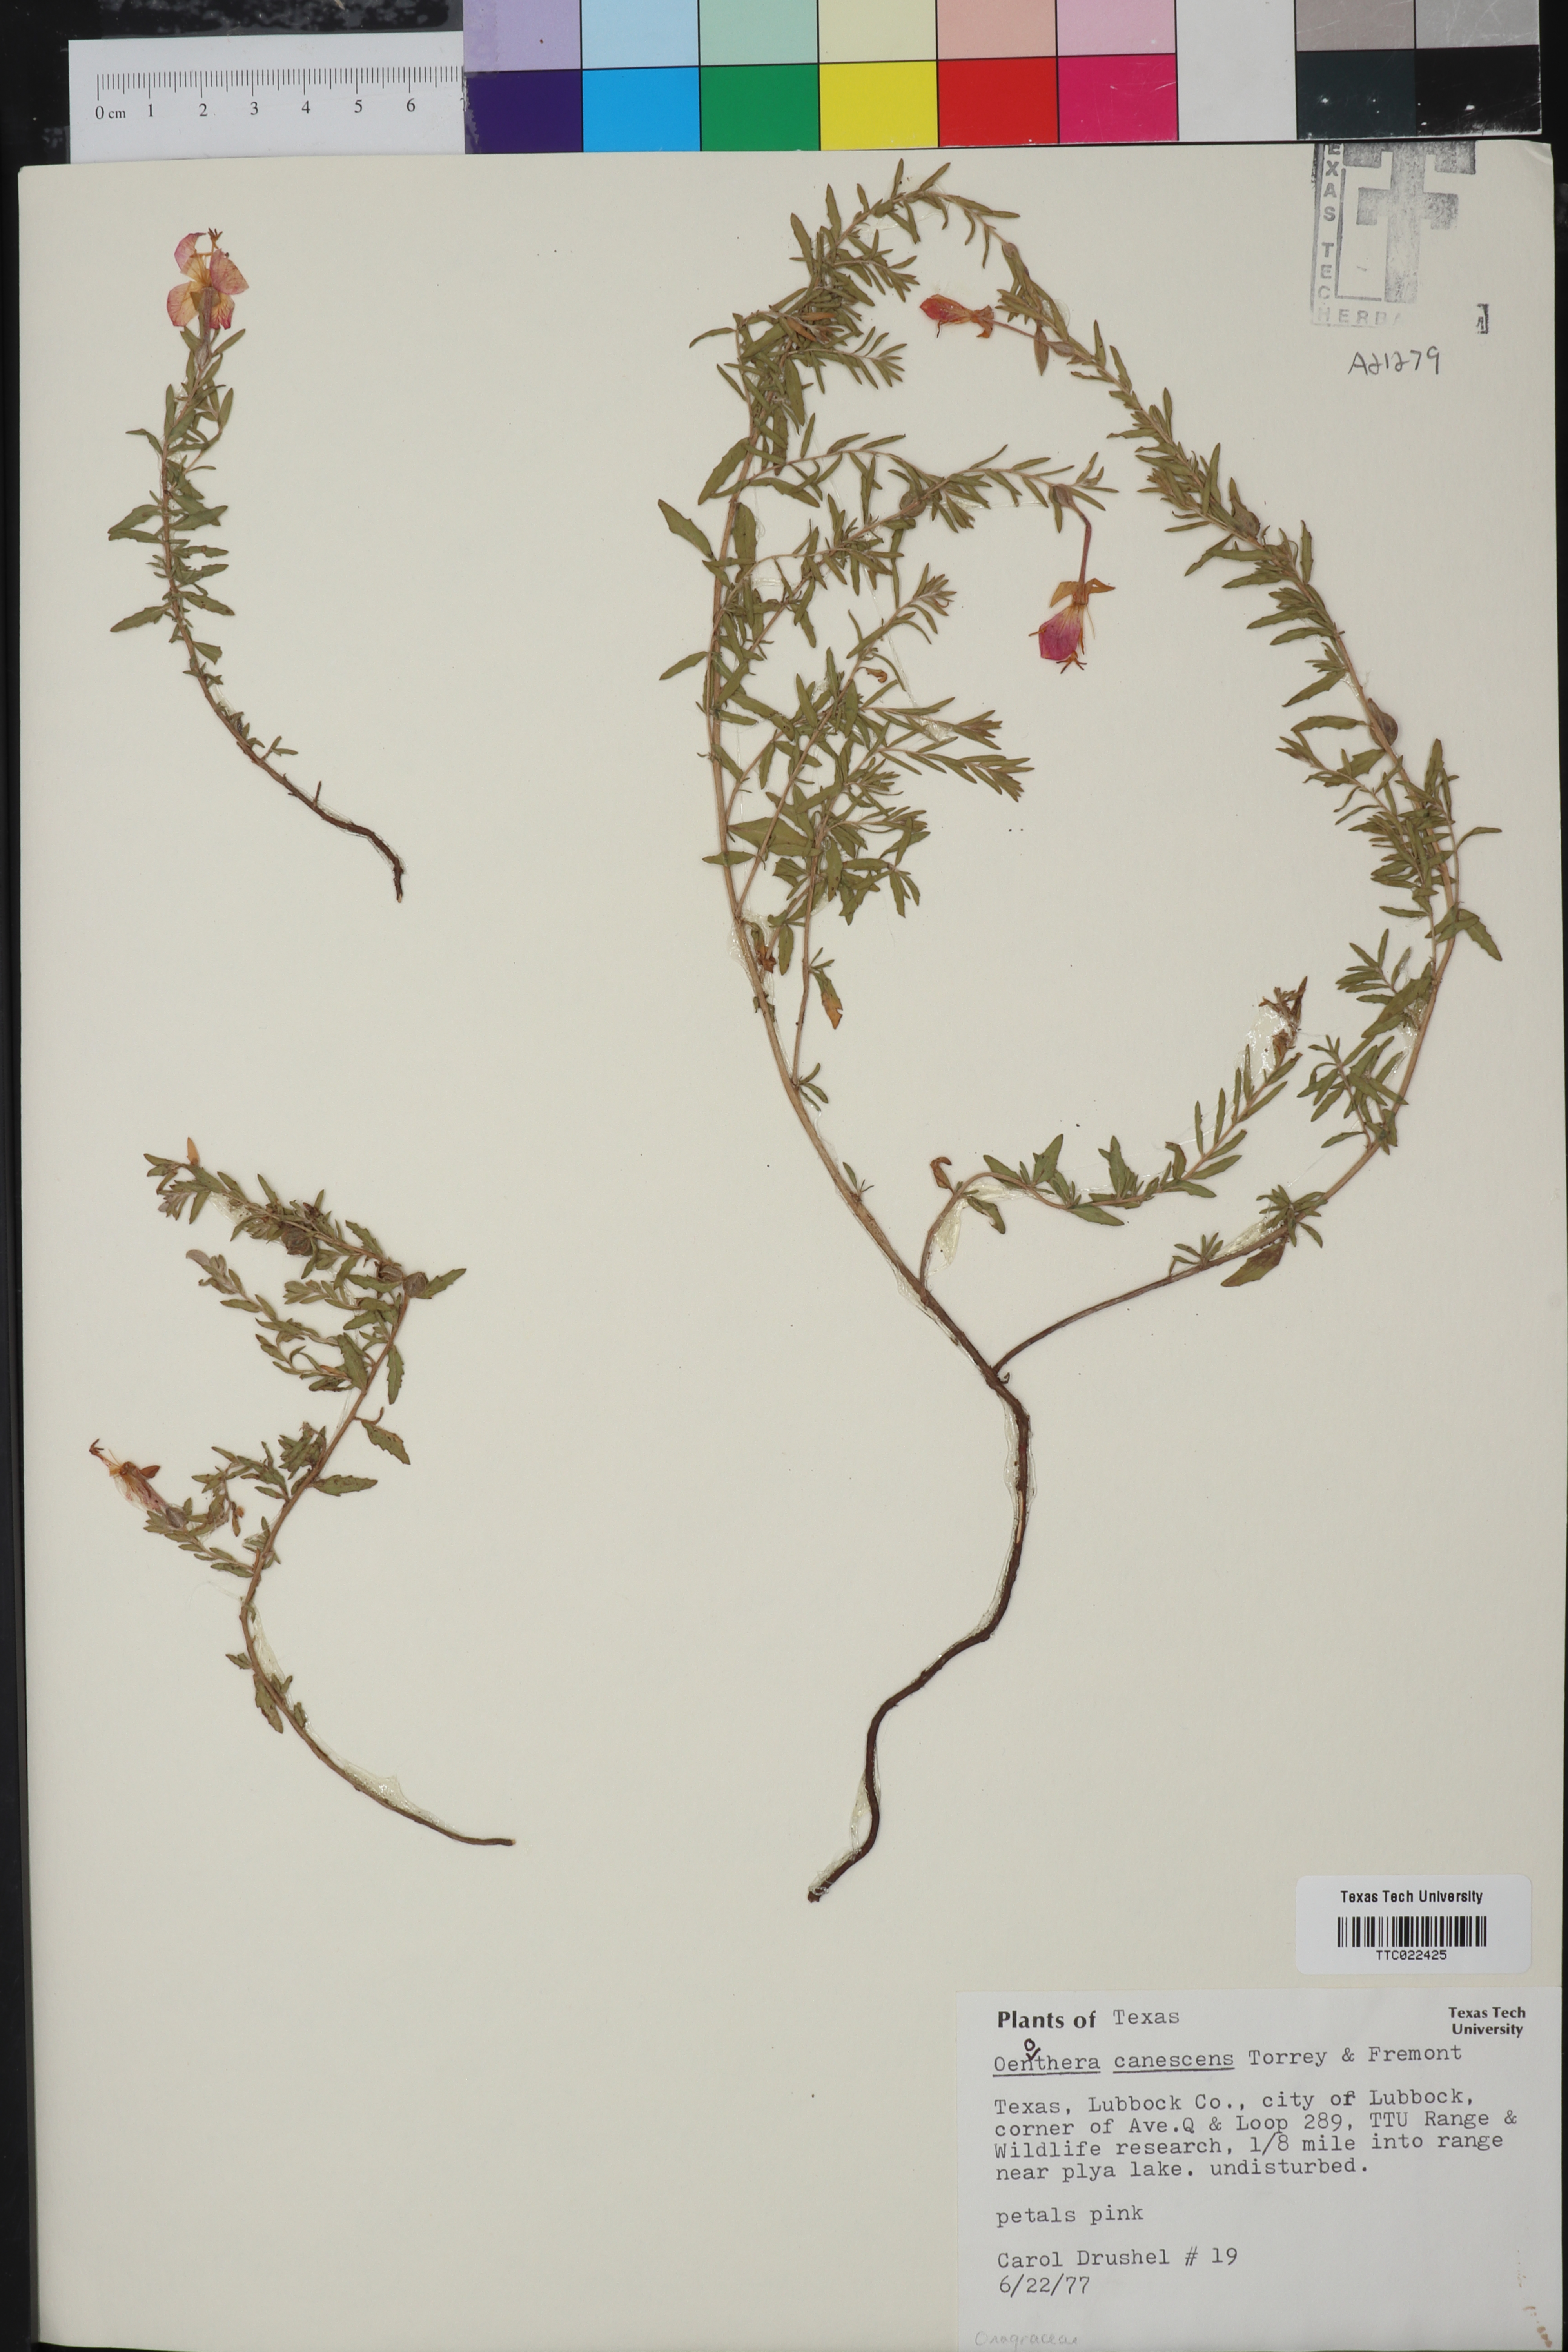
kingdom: Plantae
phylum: Tracheophyta
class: Magnoliopsida
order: Myrtales
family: Onagraceae
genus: Oenothera
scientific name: Oenothera canescens
